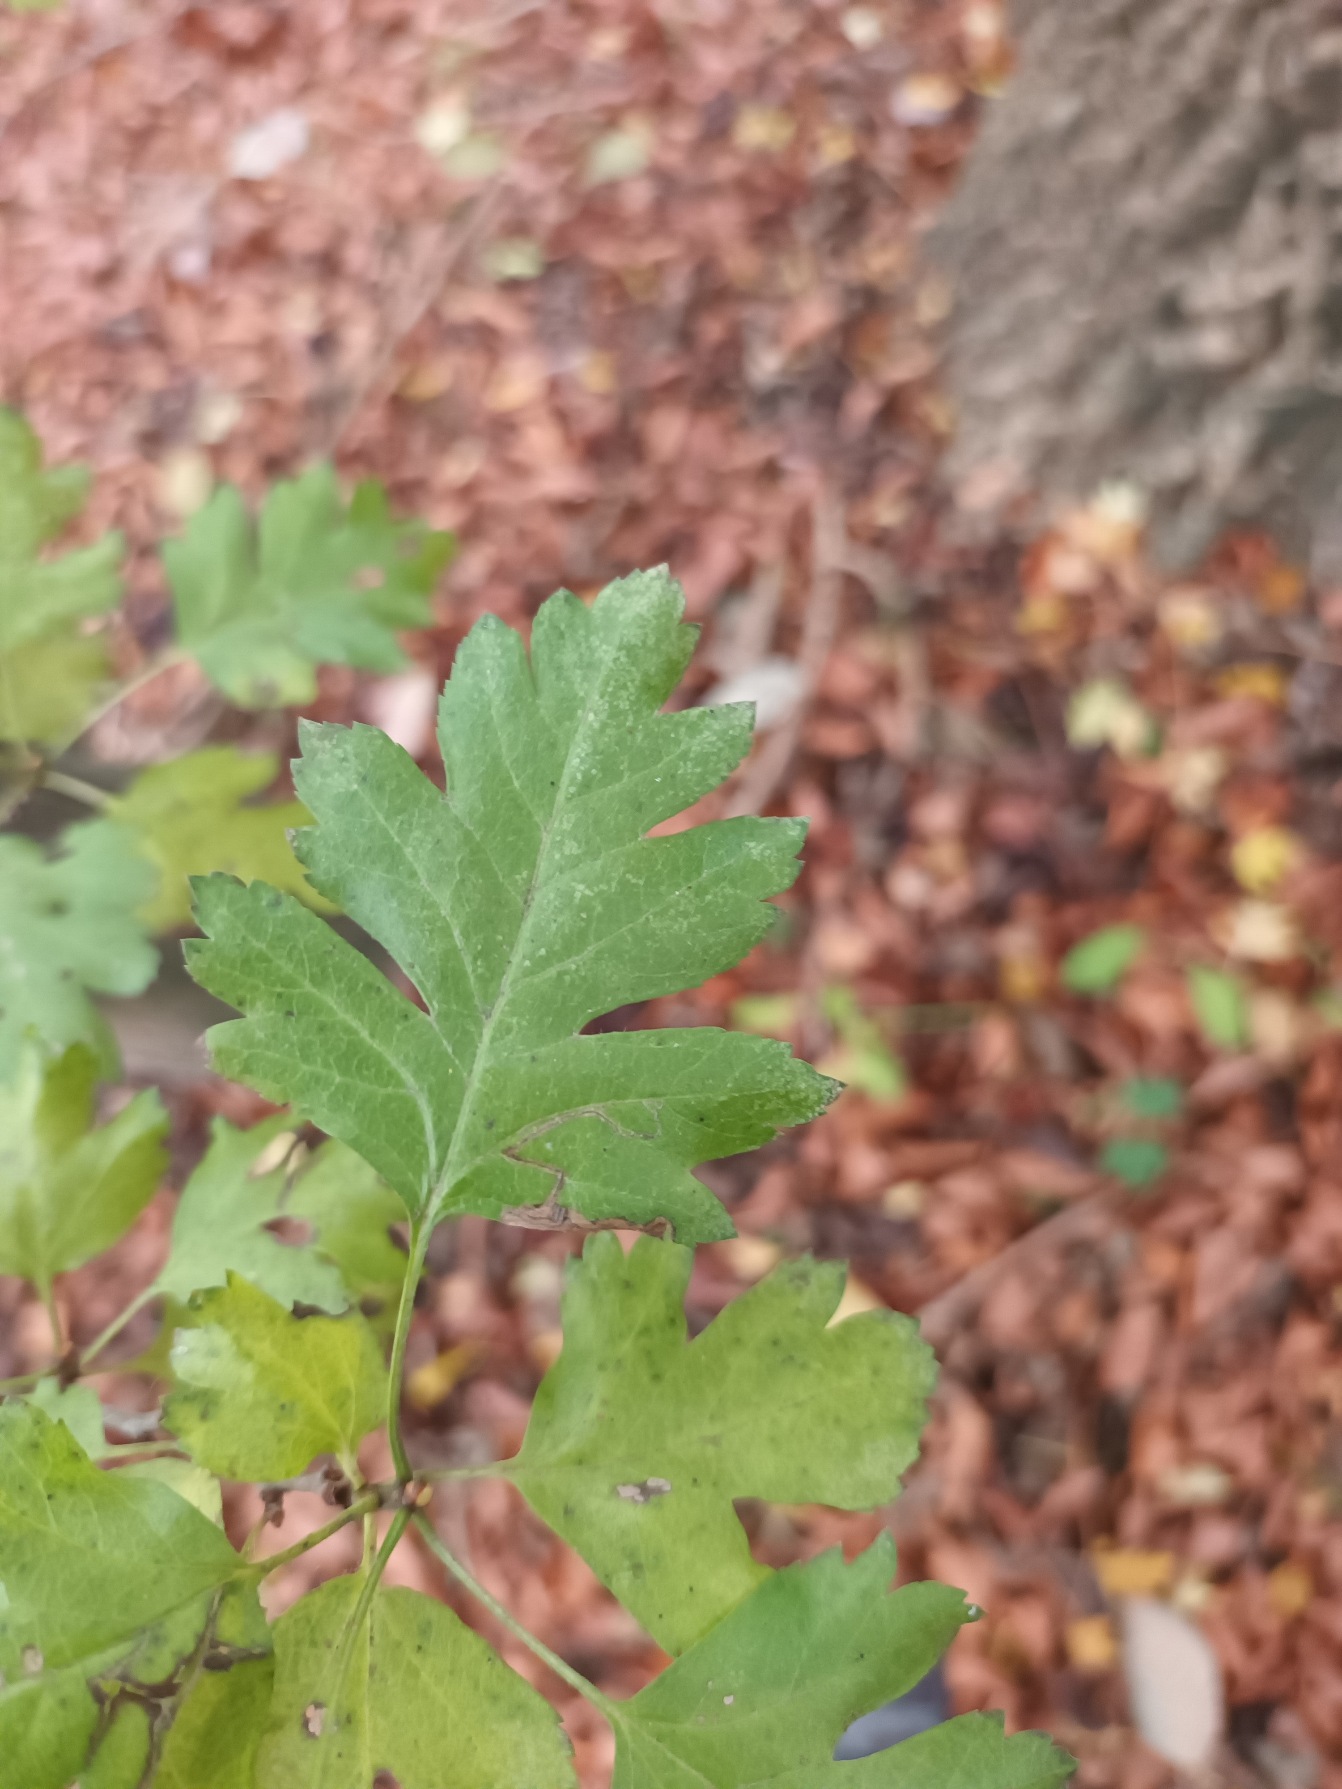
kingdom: Plantae
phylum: Tracheophyta
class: Magnoliopsida
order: Rosales
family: Rosaceae
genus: Crataegus
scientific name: Crataegus monogyna
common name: Engriflet hvidtjørn
